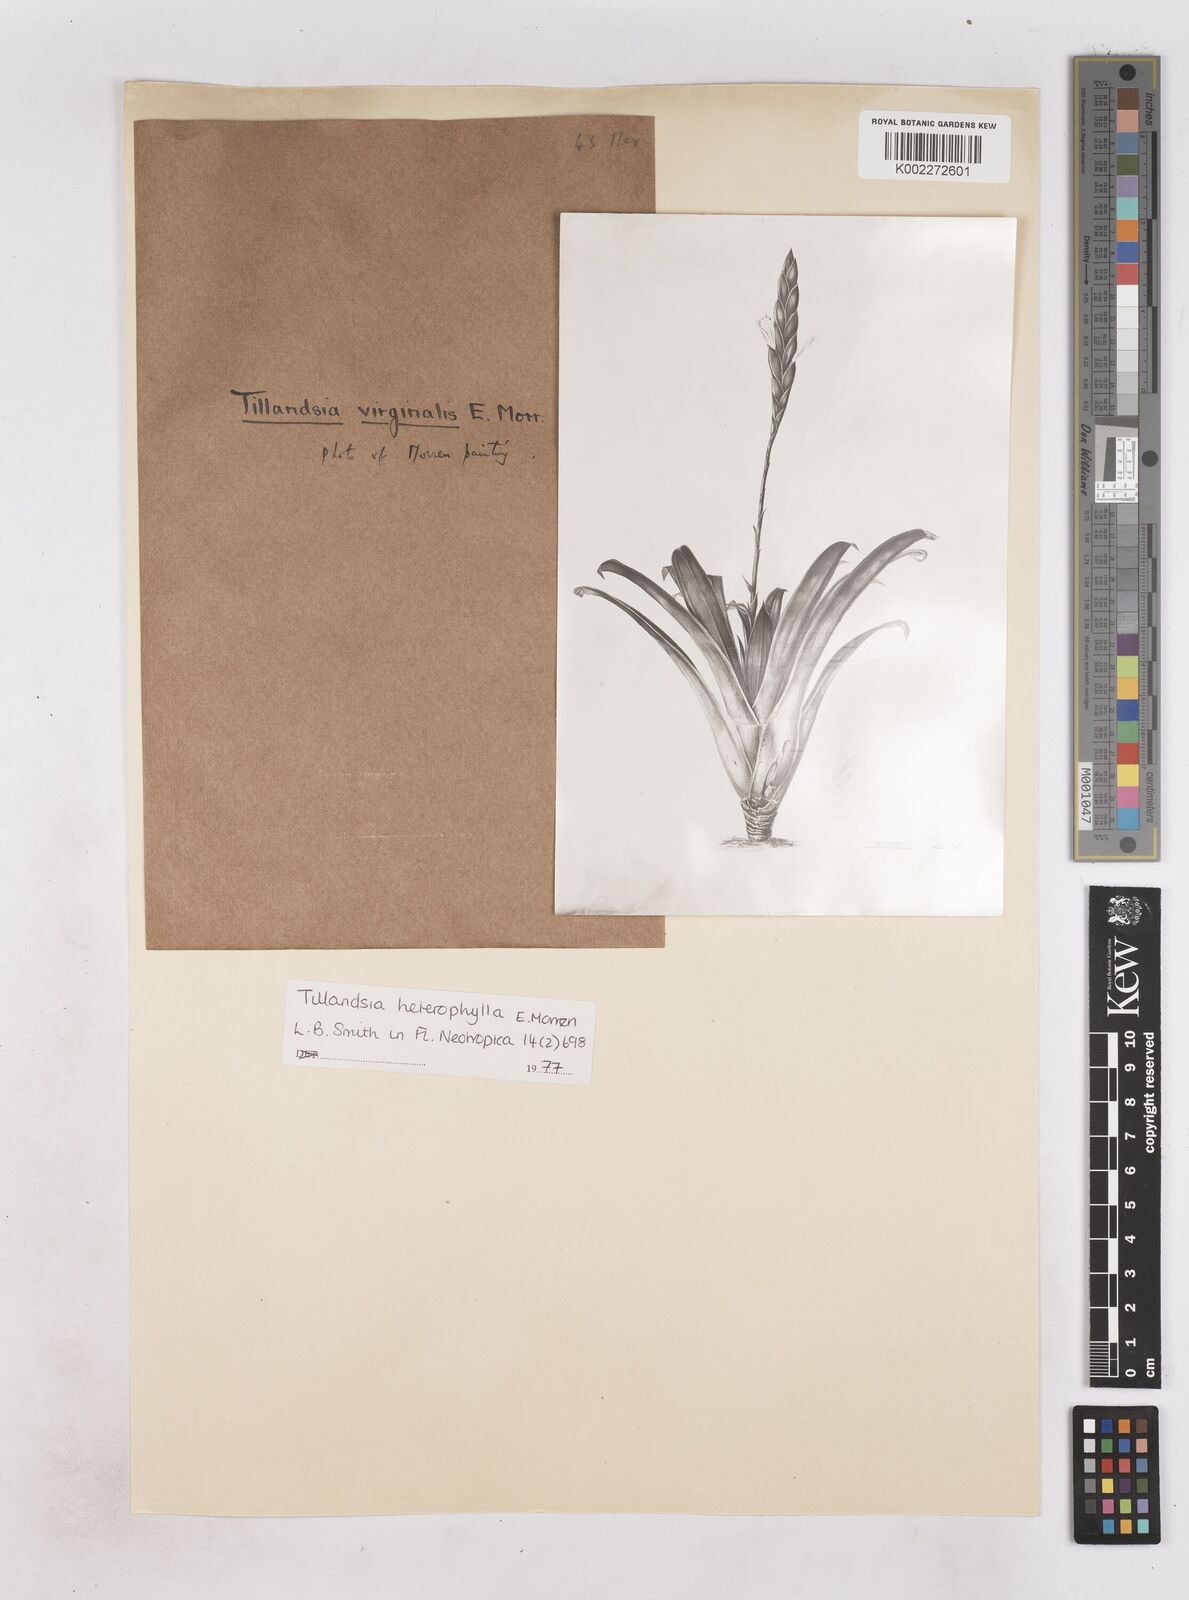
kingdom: Plantae
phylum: Tracheophyta
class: Liliopsida
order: Poales
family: Bromeliaceae
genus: Tillandsia
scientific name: Tillandsia heterophylla
